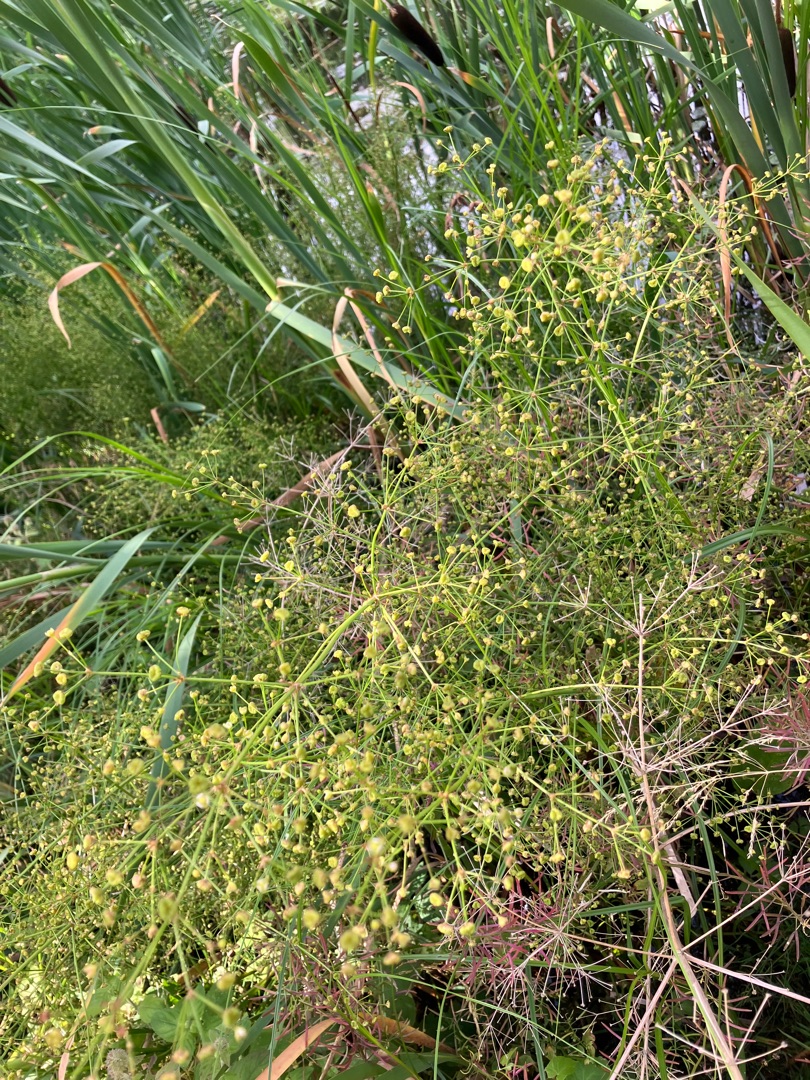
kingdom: Plantae
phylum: Tracheophyta
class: Liliopsida
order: Alismatales
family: Alismataceae
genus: Alisma
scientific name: Alisma
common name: Skebladslægten
